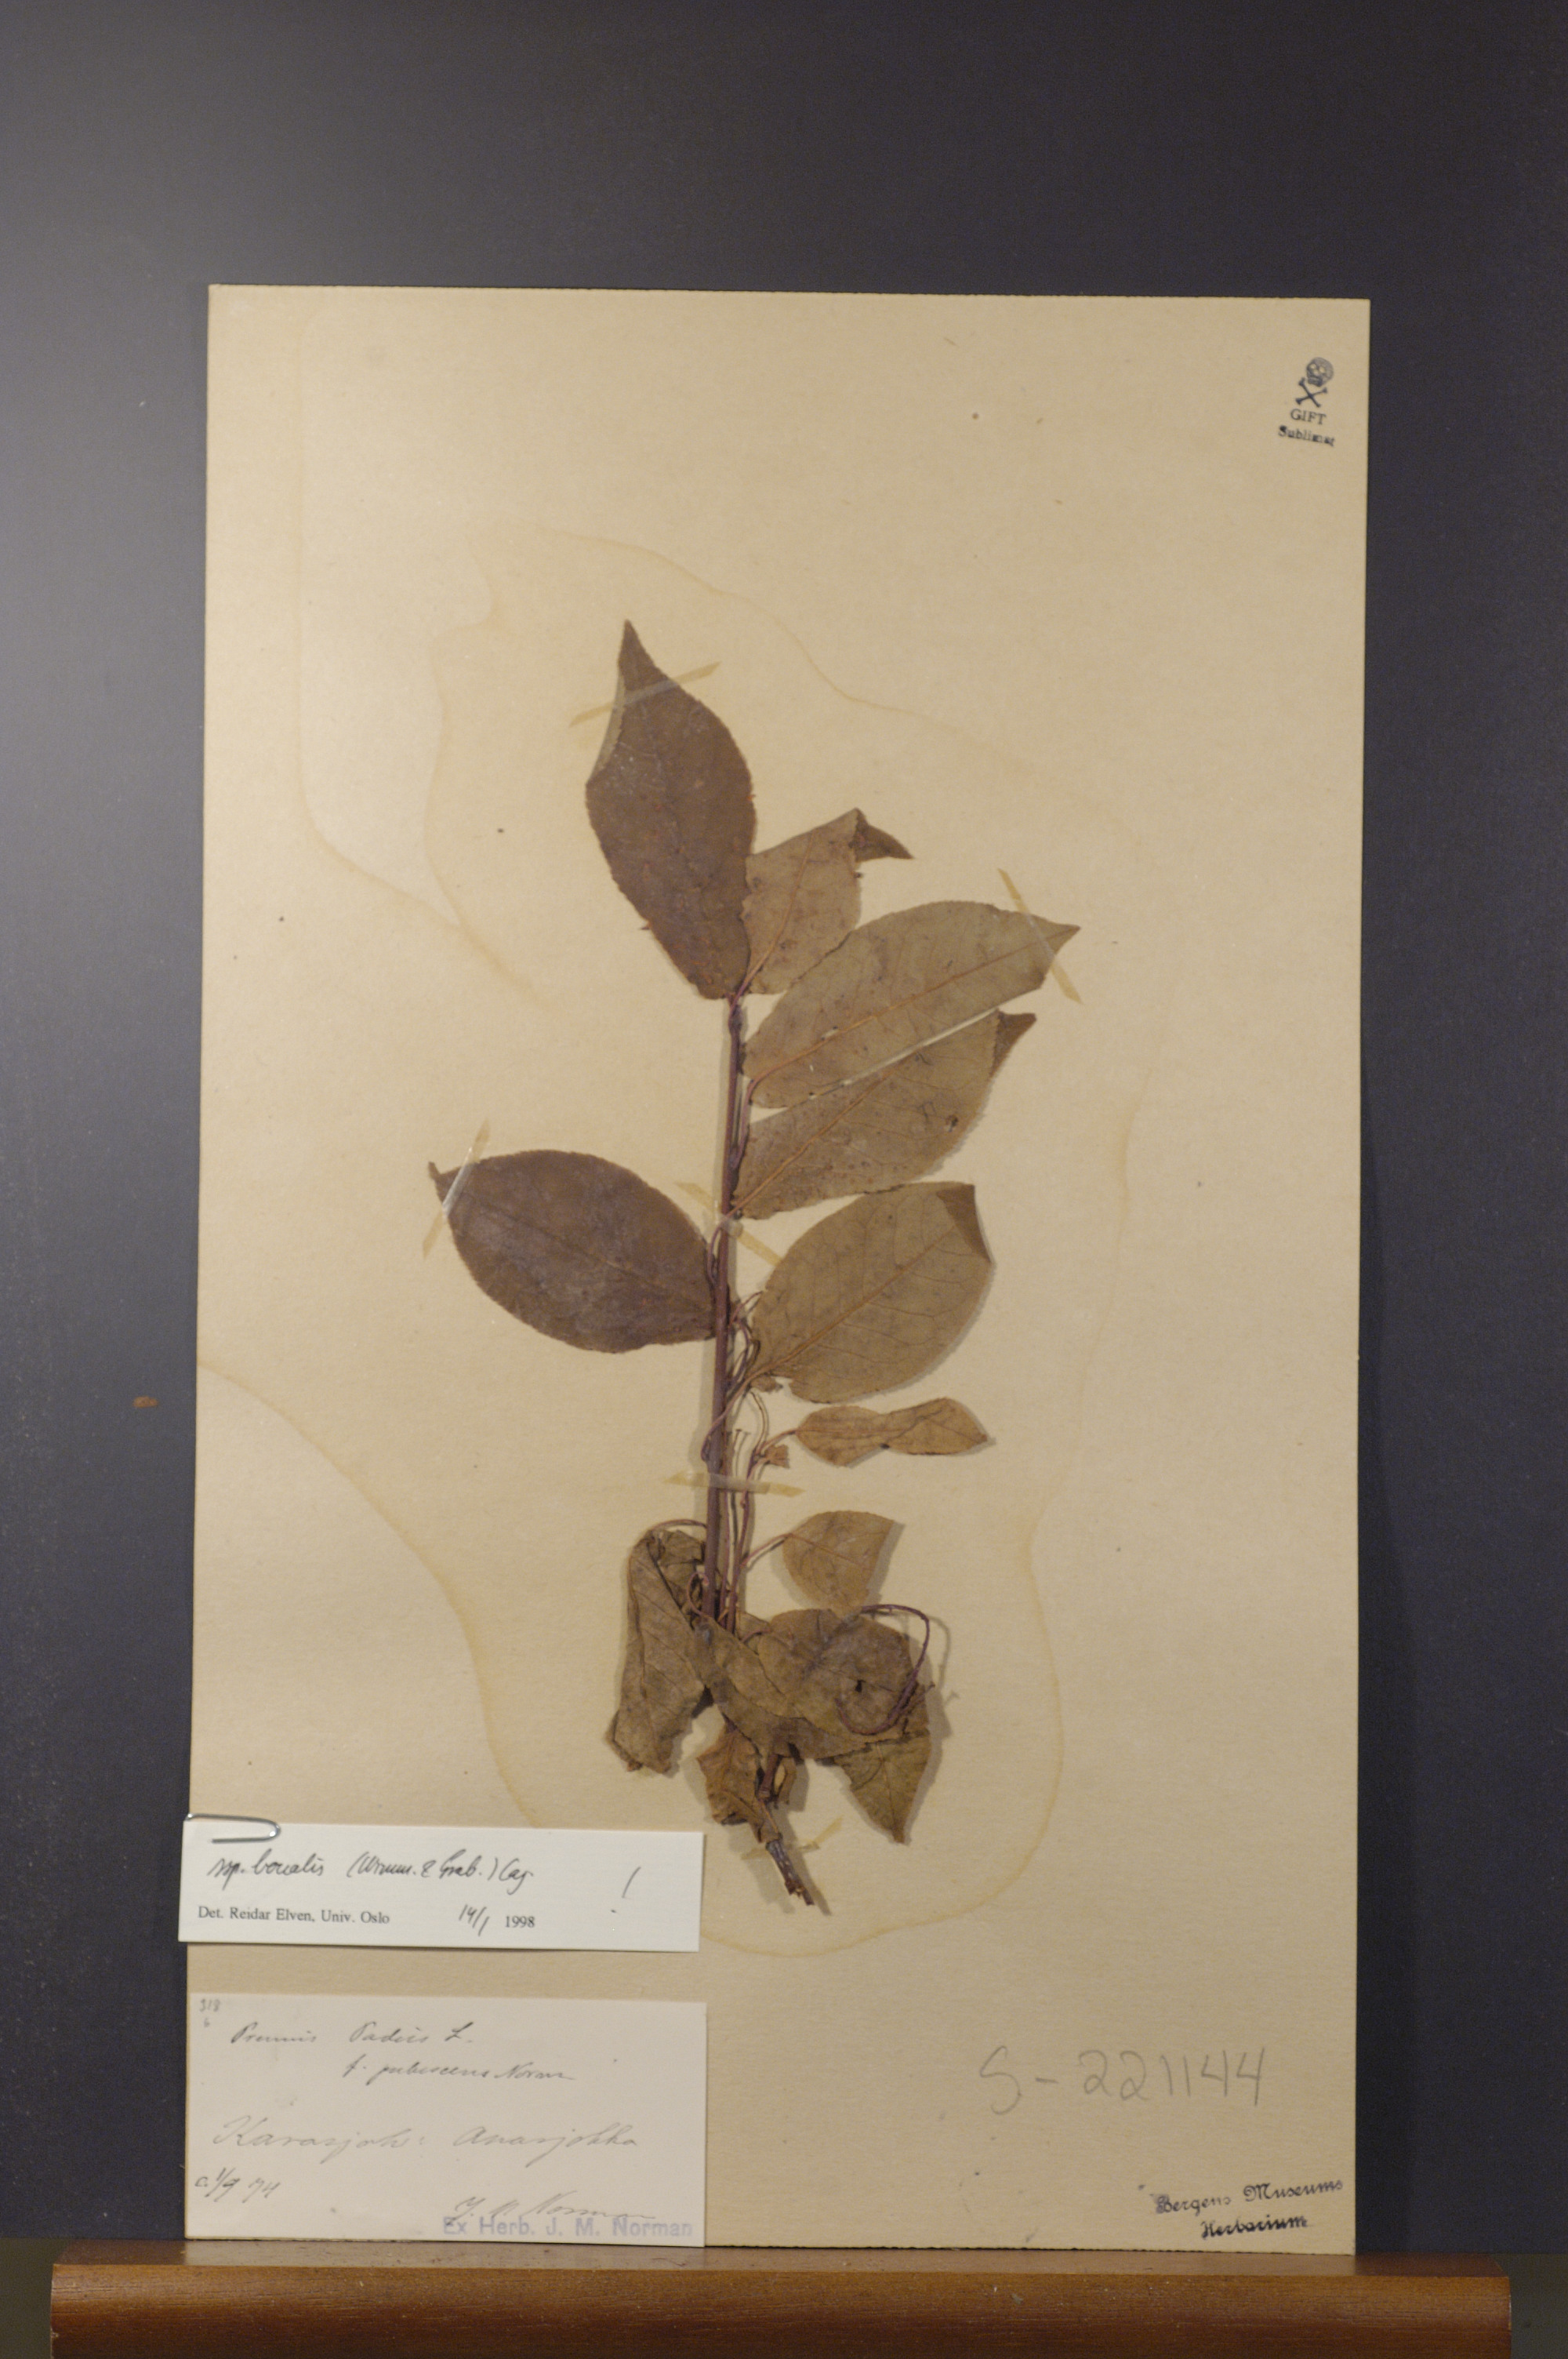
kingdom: Plantae
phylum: Tracheophyta
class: Magnoliopsida
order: Rosales
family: Rosaceae
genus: Prunus
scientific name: Prunus padus
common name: Bird cherry
